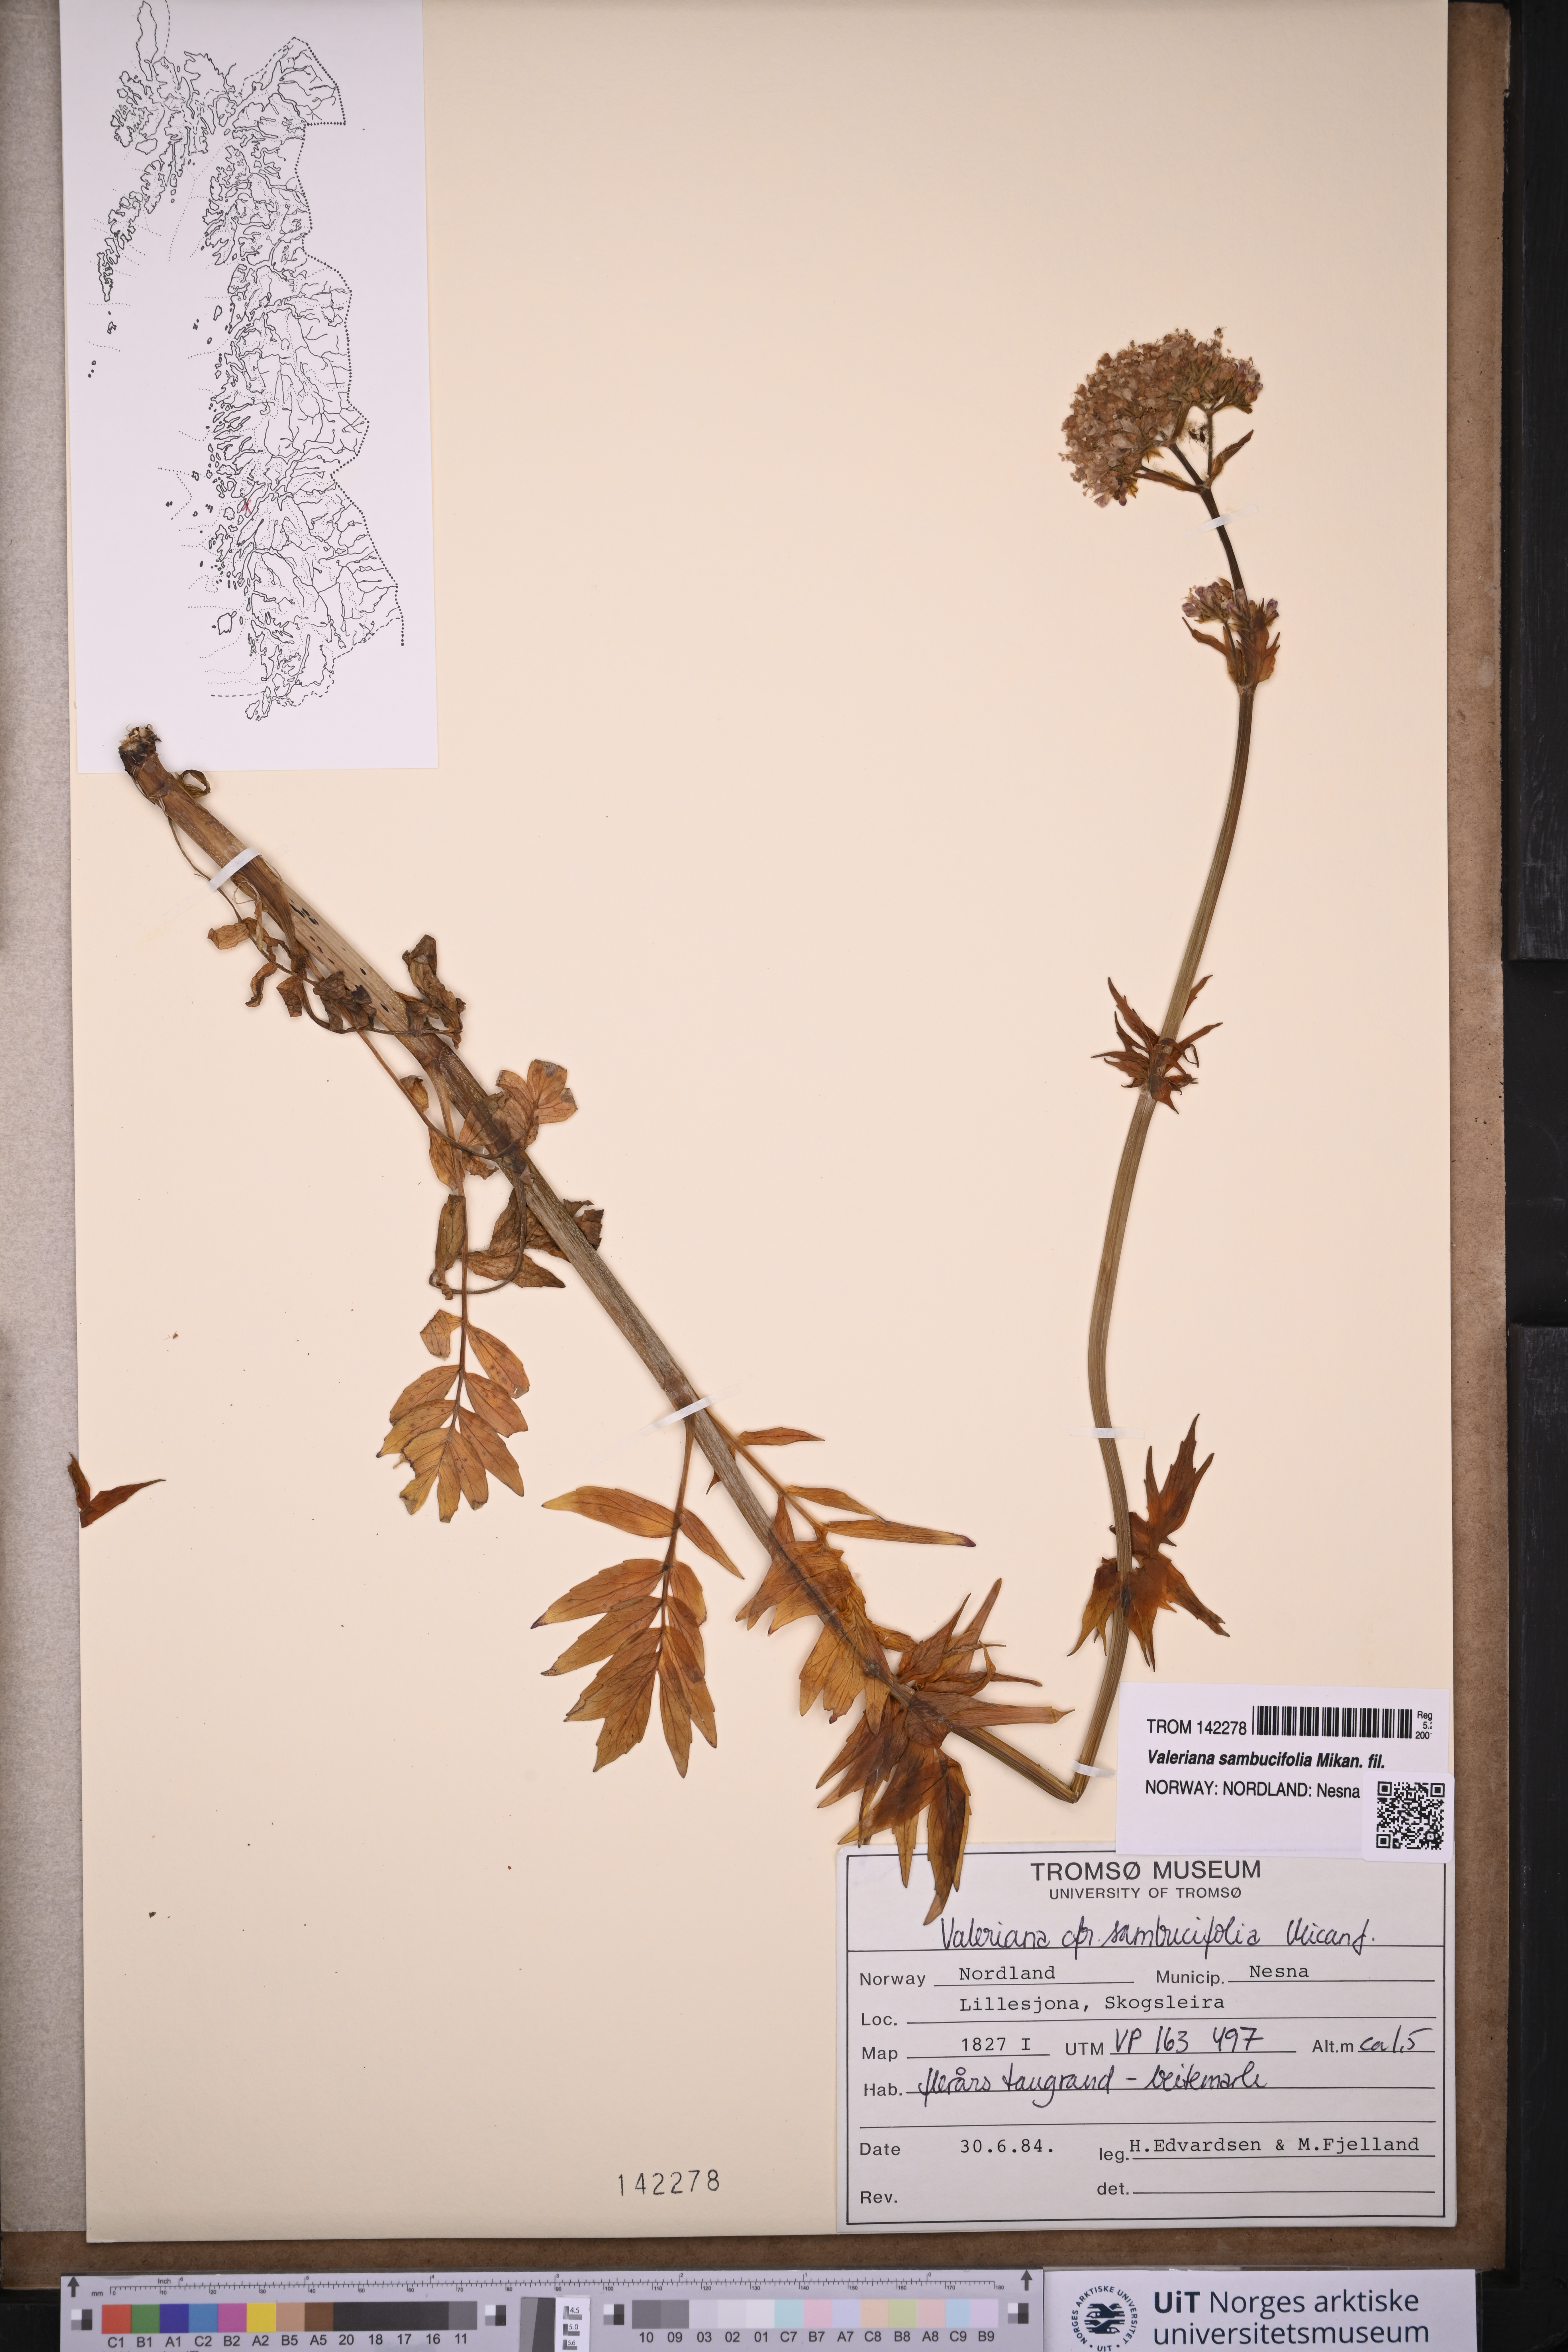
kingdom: Plantae
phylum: Tracheophyta
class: Magnoliopsida
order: Dipsacales
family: Caprifoliaceae
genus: Valeriana
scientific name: Valeriana excelsa
